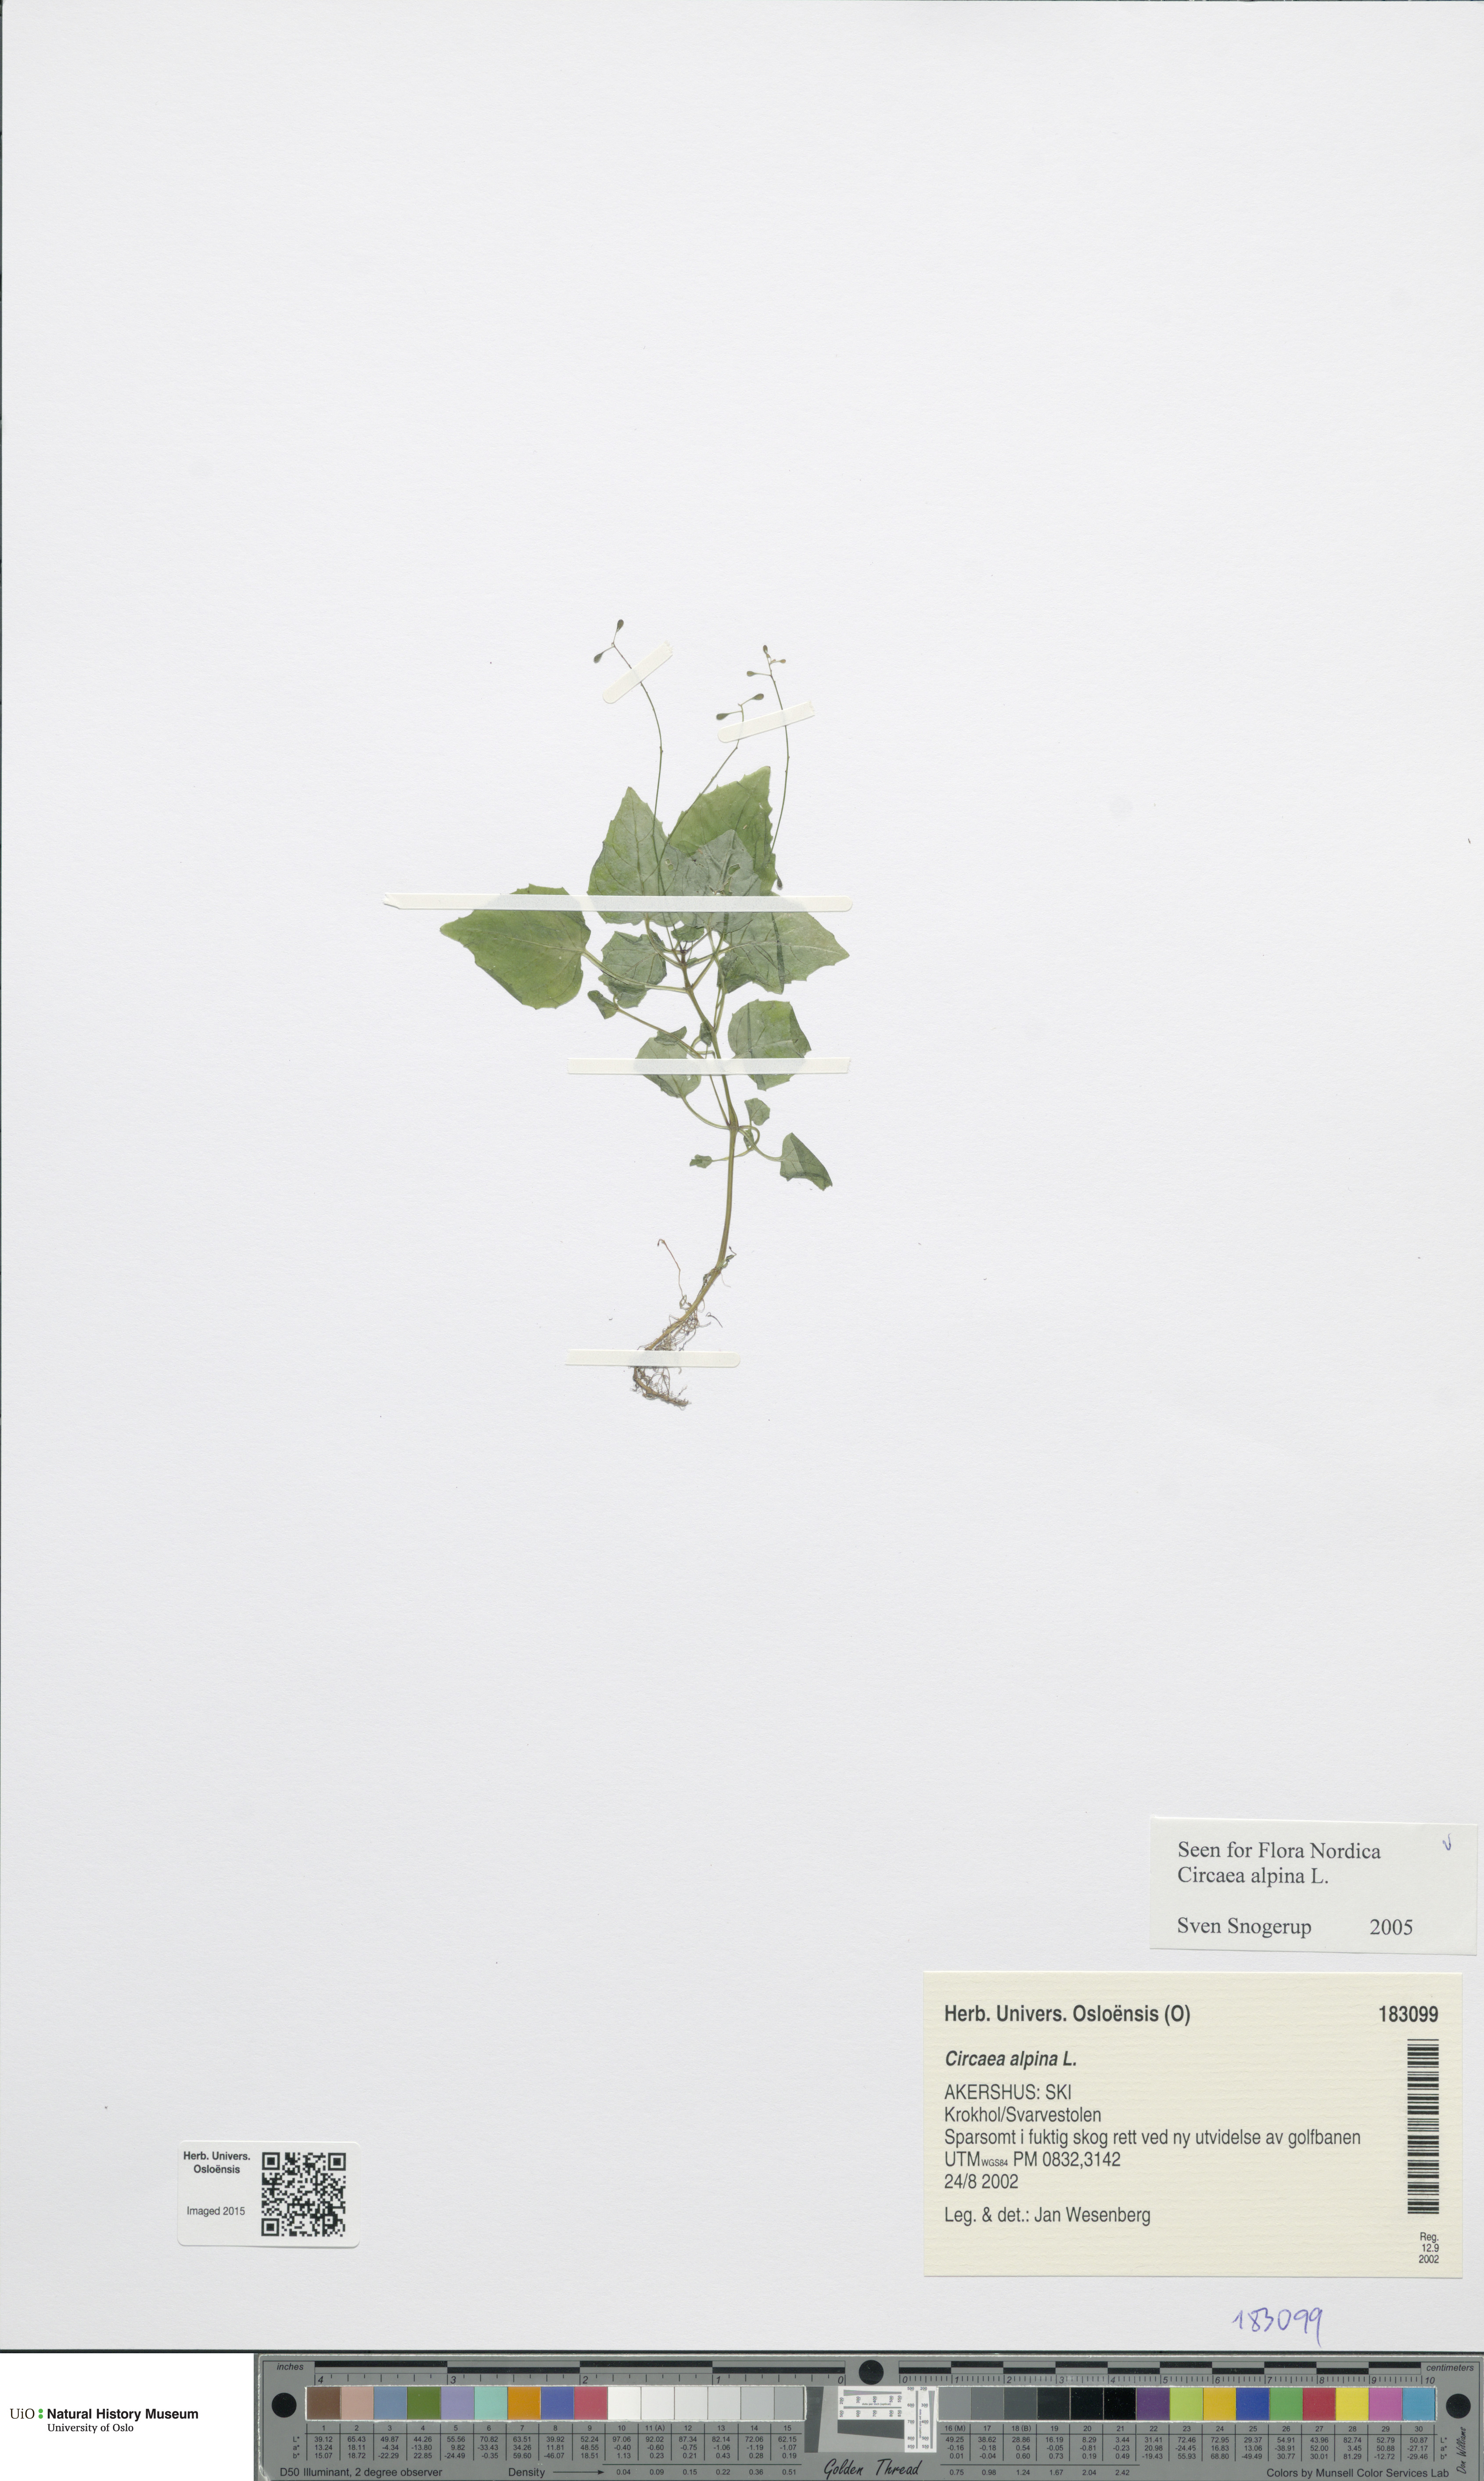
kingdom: Plantae
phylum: Tracheophyta
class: Magnoliopsida
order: Myrtales
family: Onagraceae
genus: Circaea
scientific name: Circaea alpina
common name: Alpine enchanter's-nightshade
